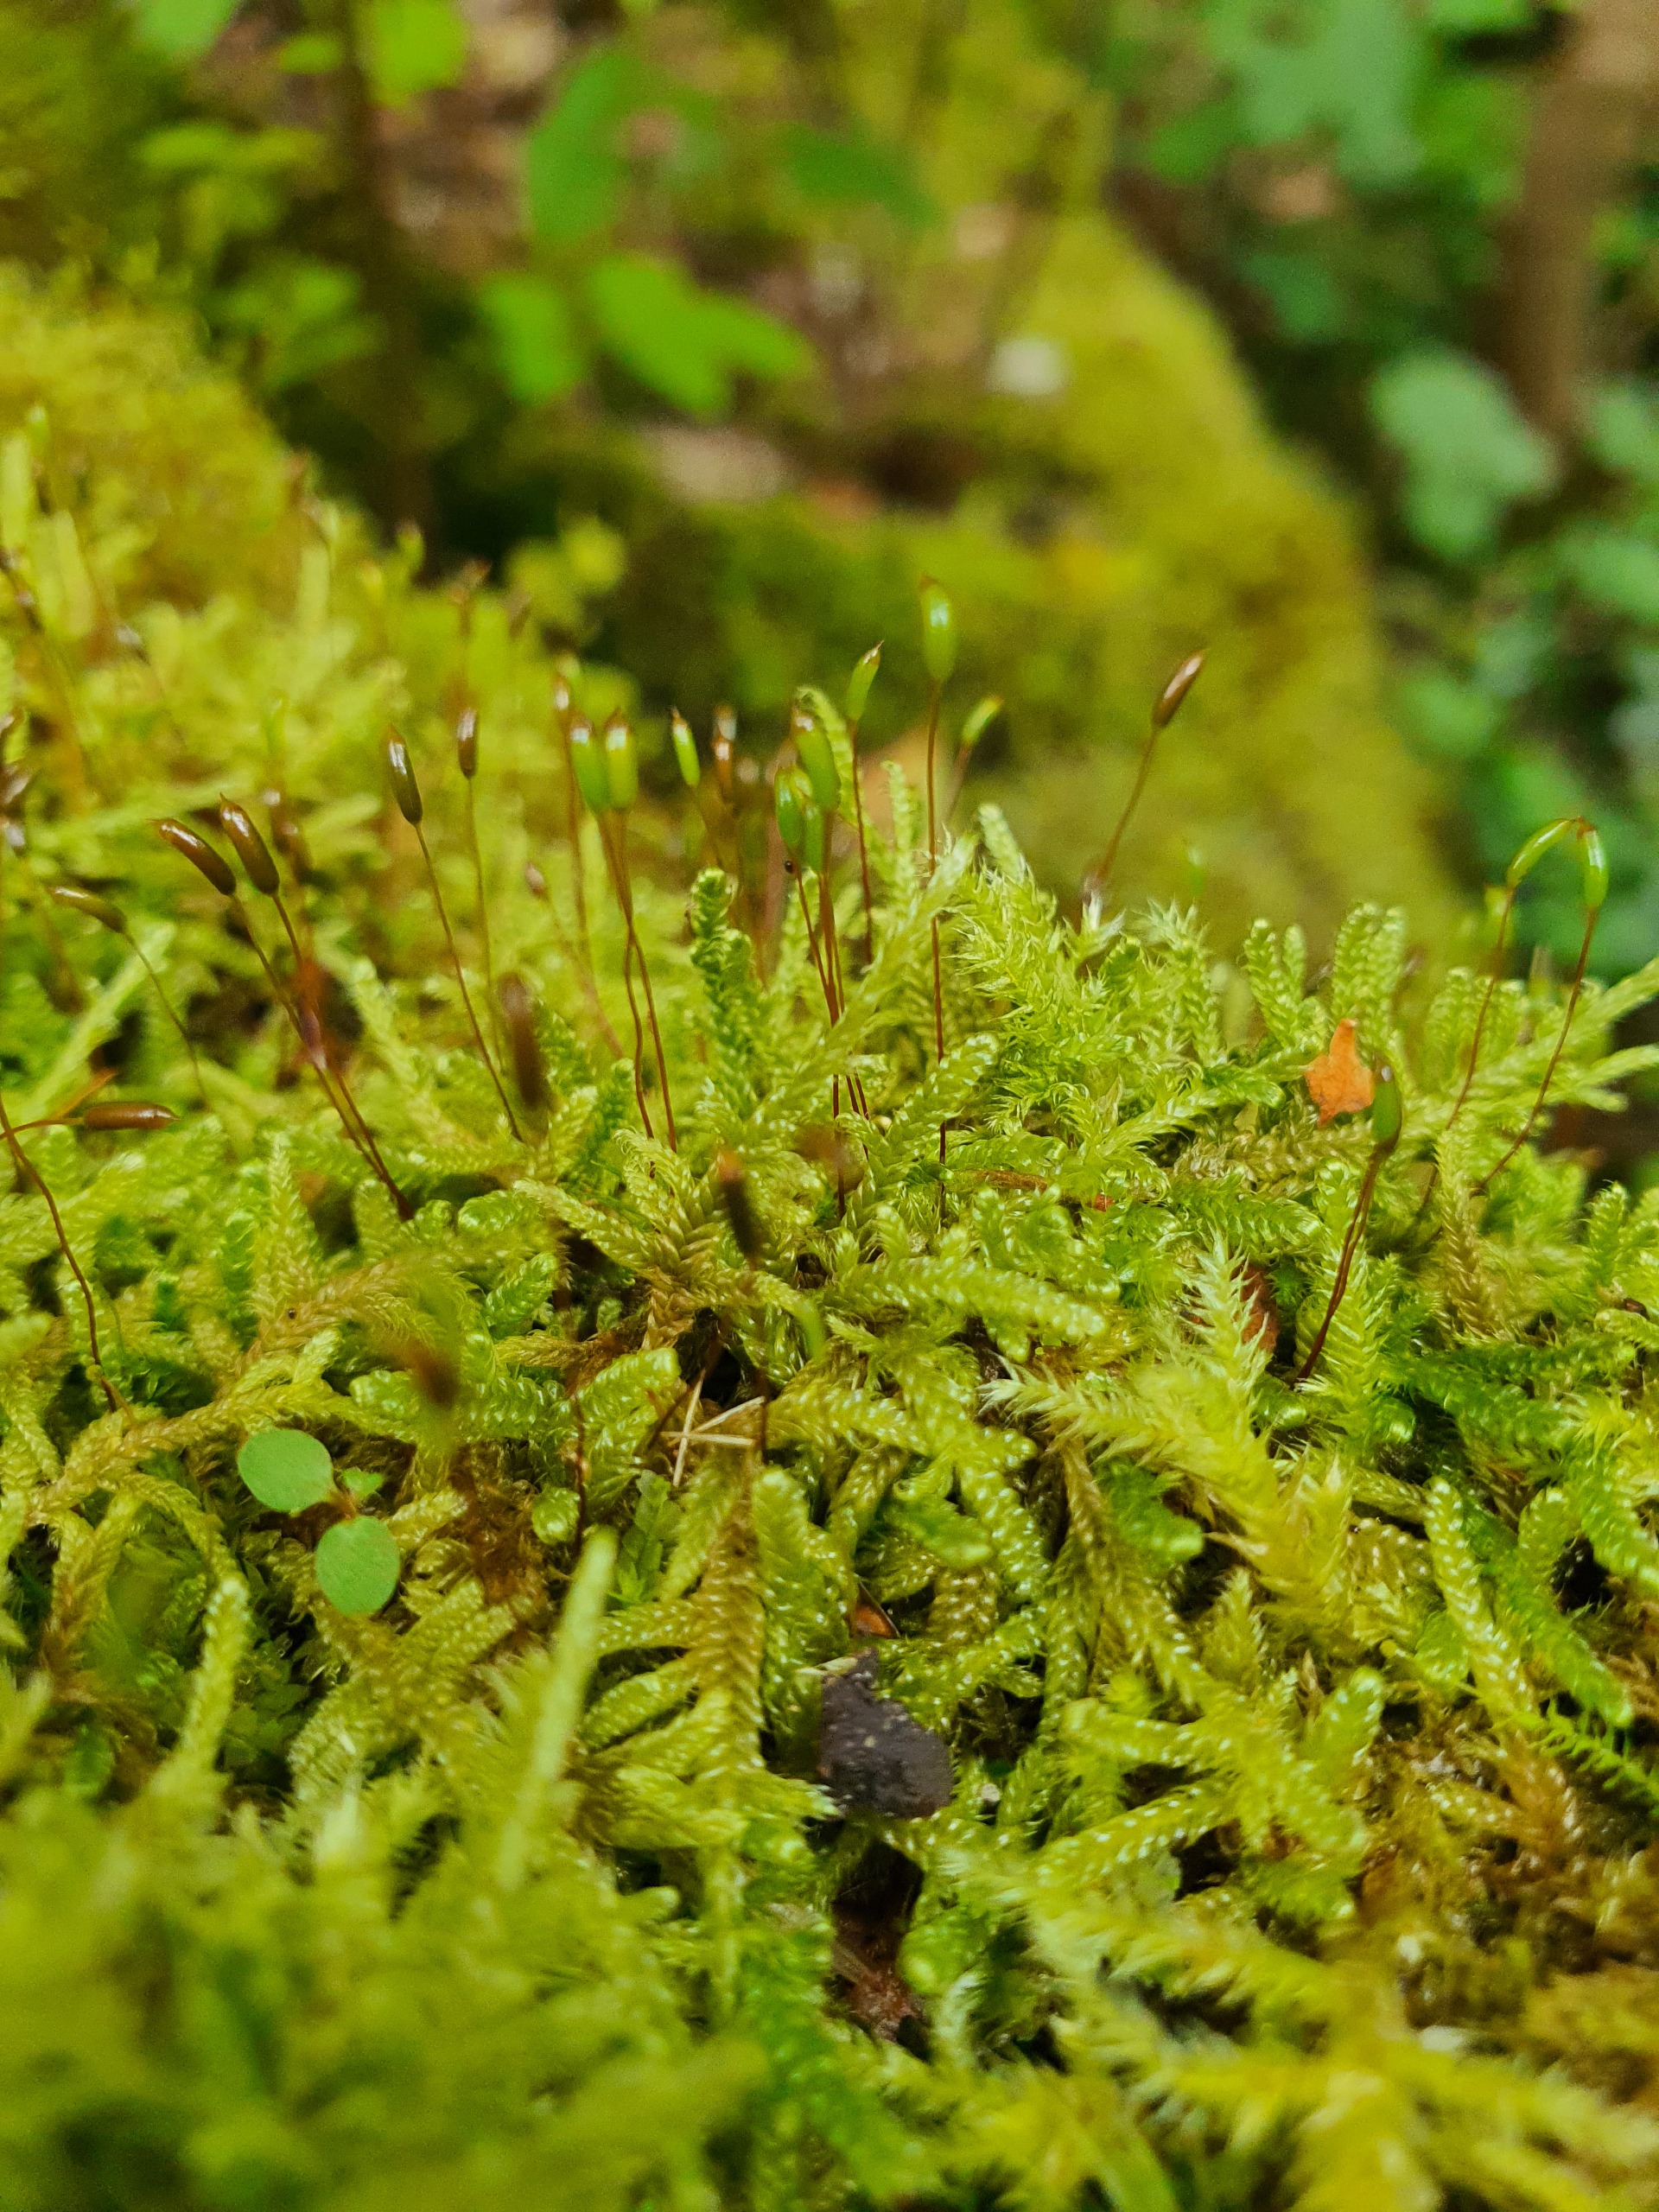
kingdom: Plantae
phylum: Bryophyta
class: Bryopsida
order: Hypnales
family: Hypnaceae
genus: Hypnum
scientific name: Hypnum cupressiforme
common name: Almindelig cypresmos
